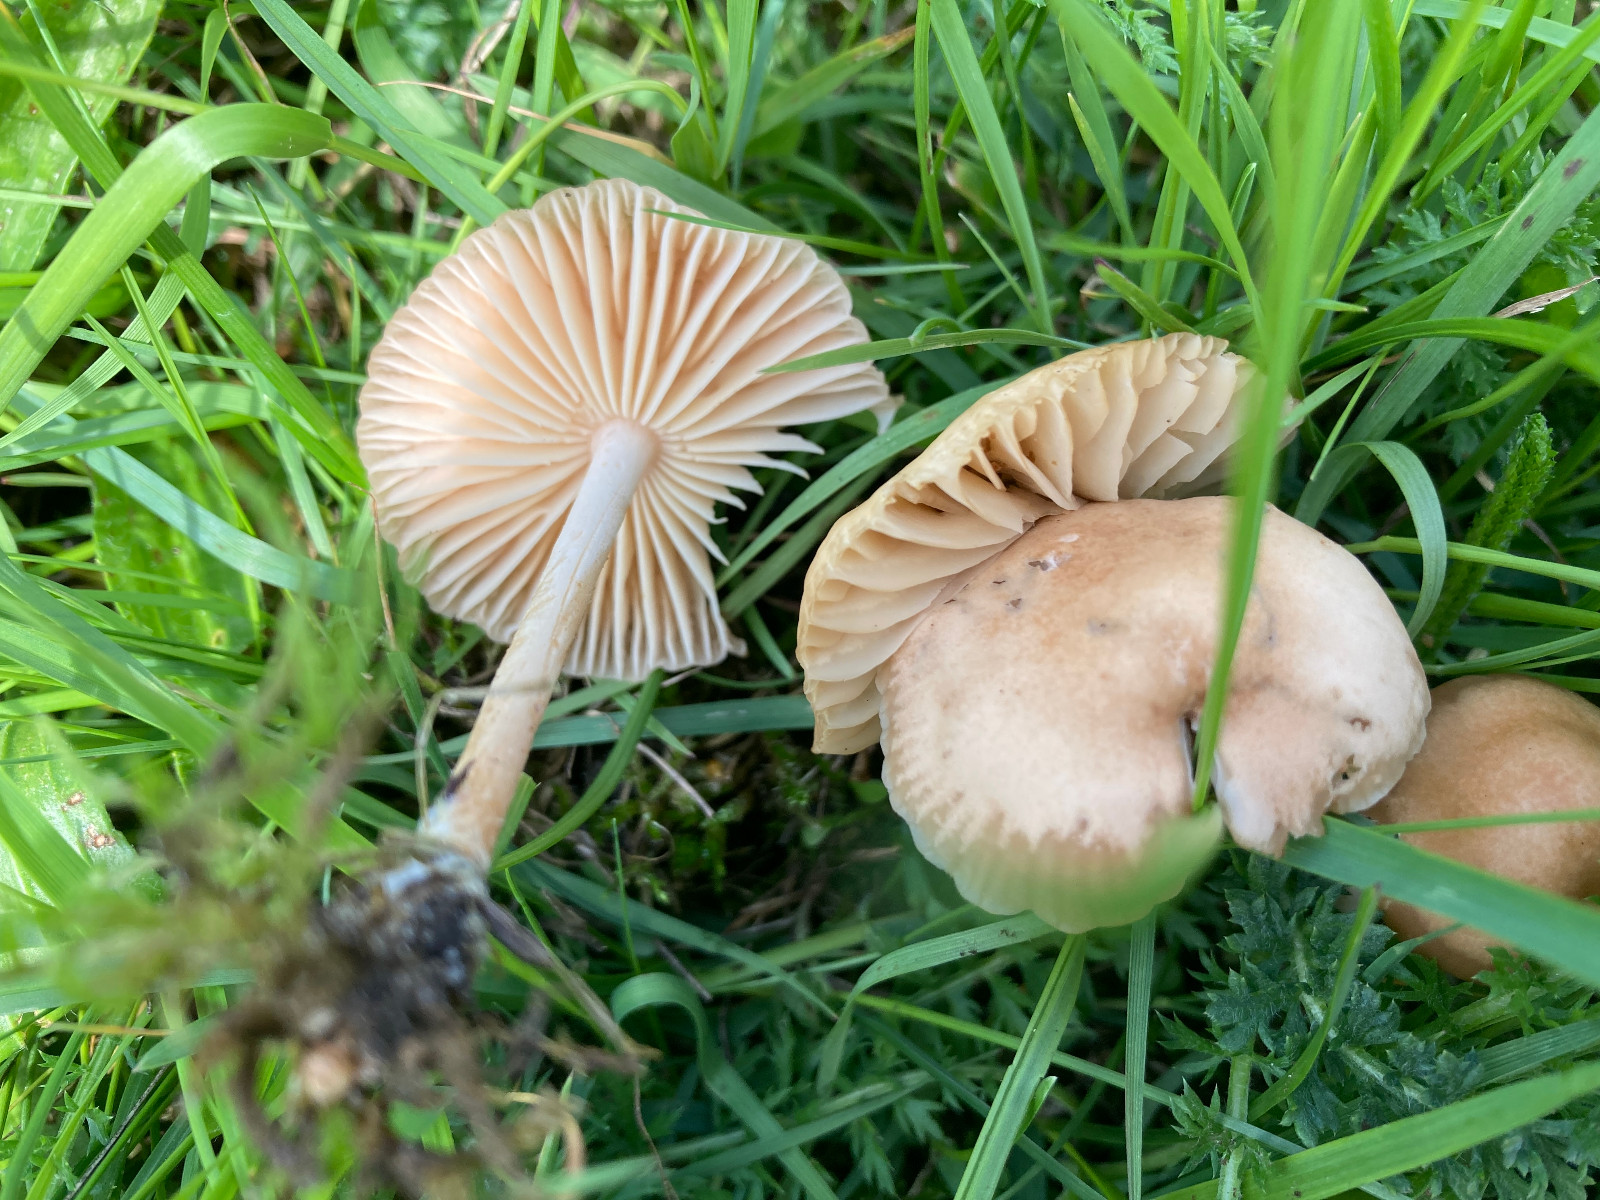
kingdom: Fungi
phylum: Basidiomycota
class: Agaricomycetes
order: Agaricales
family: Marasmiaceae
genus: Marasmius
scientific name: Marasmius oreades
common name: elledans-bruskhat
